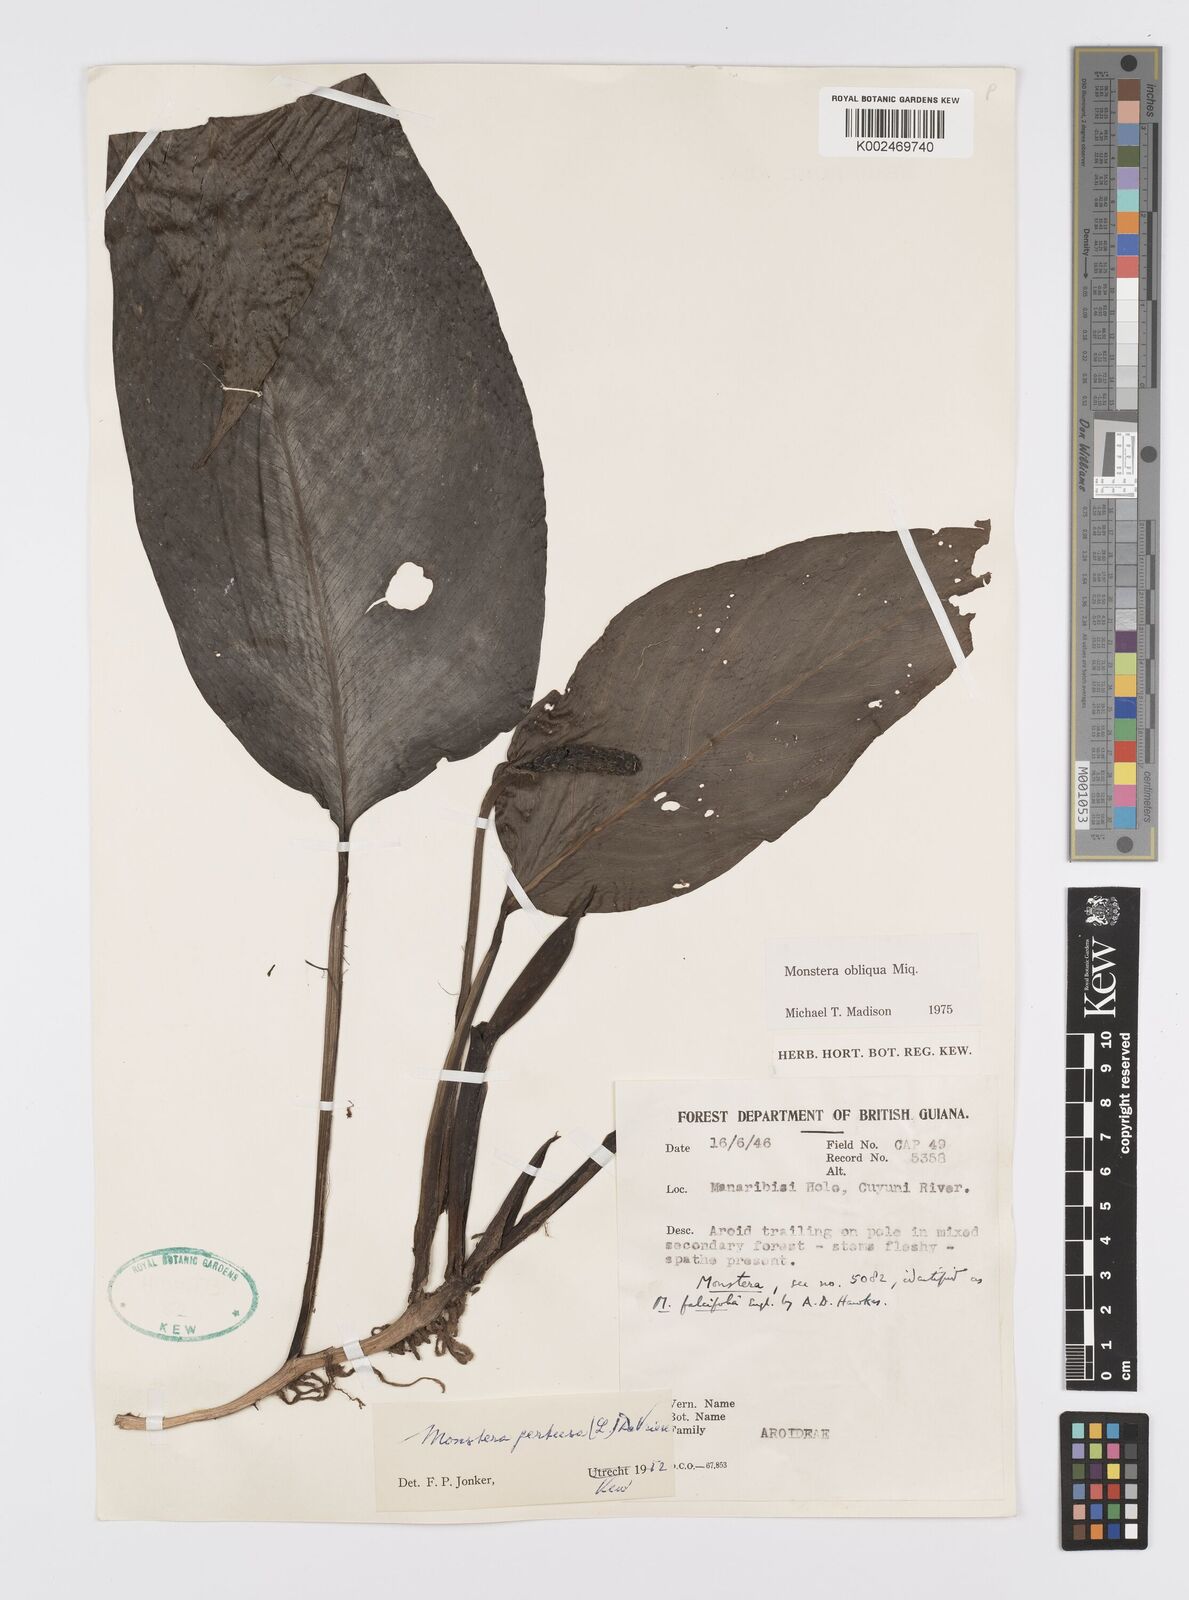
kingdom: Plantae
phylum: Tracheophyta
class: Liliopsida
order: Alismatales
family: Araceae
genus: Monstera
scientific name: Monstera obliqua
